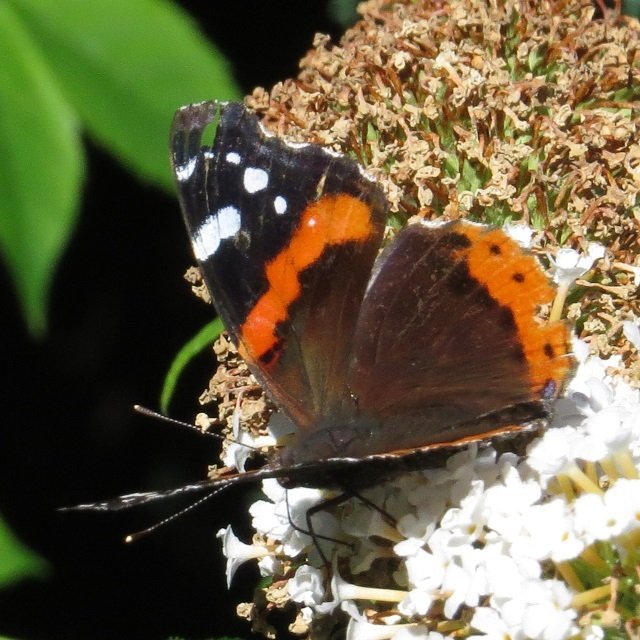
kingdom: Animalia
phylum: Arthropoda
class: Insecta
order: Lepidoptera
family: Nymphalidae
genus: Vanessa
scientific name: Vanessa atalanta
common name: Red Admiral
